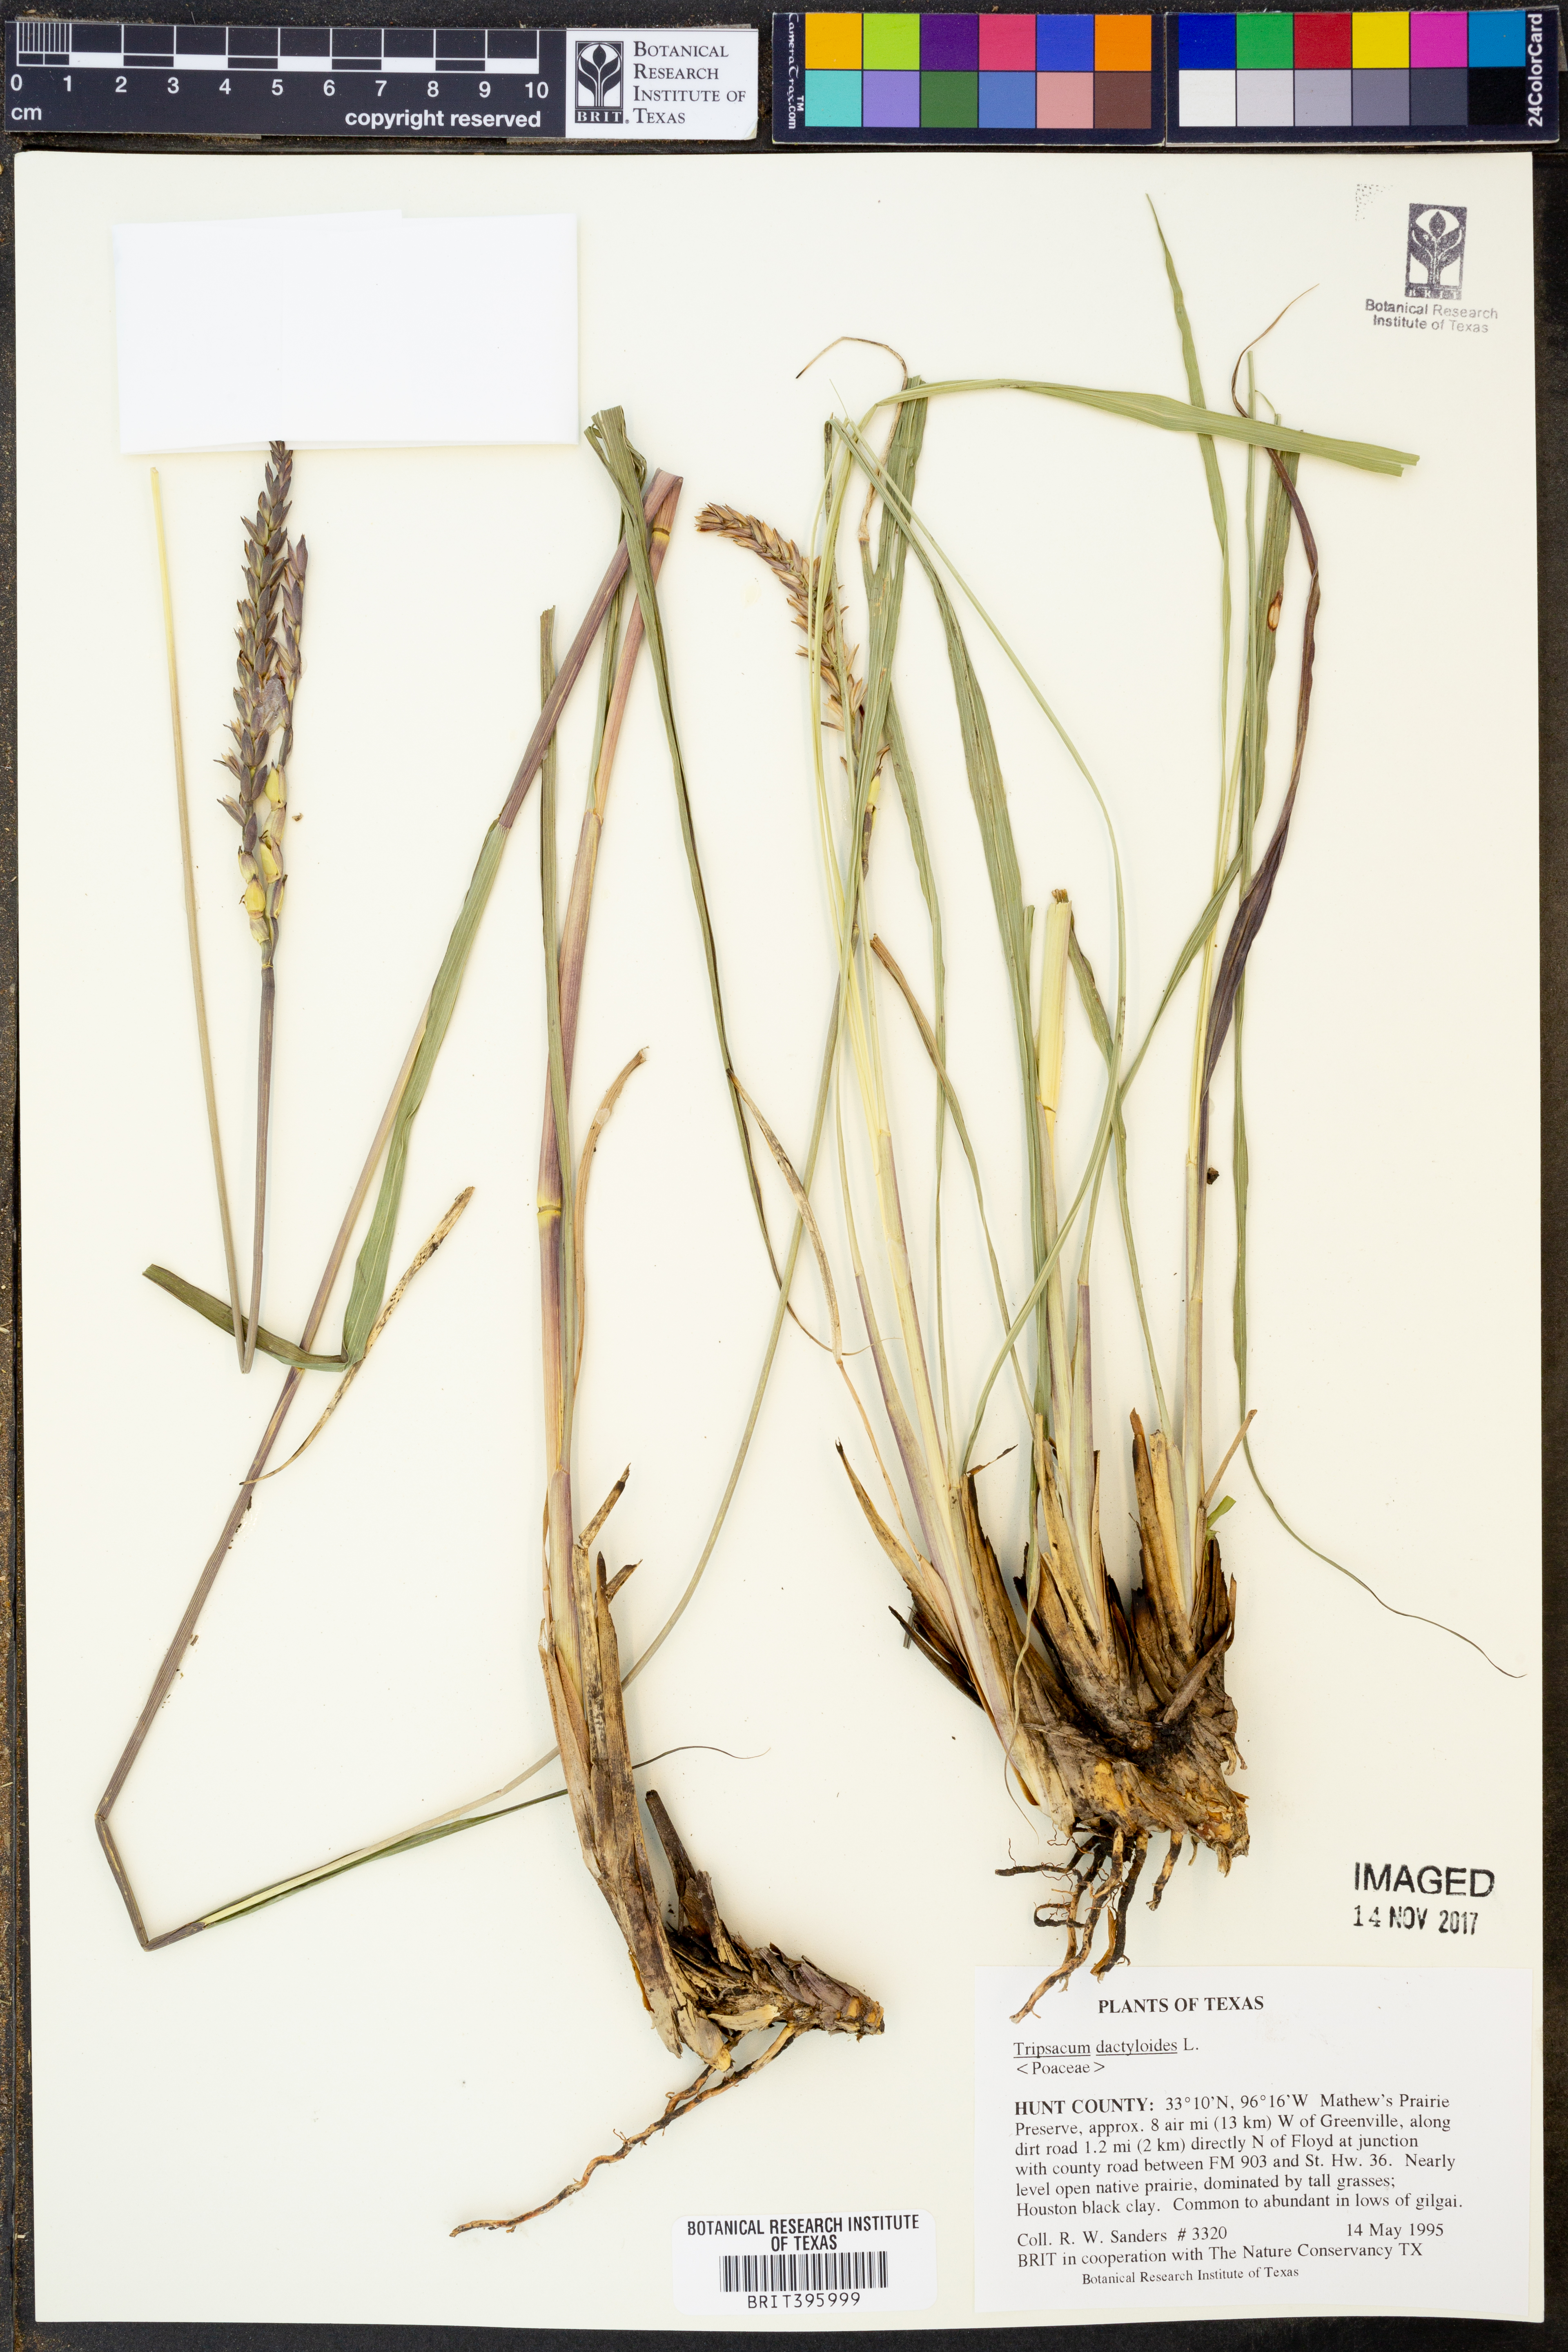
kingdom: Plantae
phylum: Tracheophyta
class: Liliopsida
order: Poales
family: Poaceae
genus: Tripsacum
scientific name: Tripsacum dactyloides
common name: Buffalo-grass
